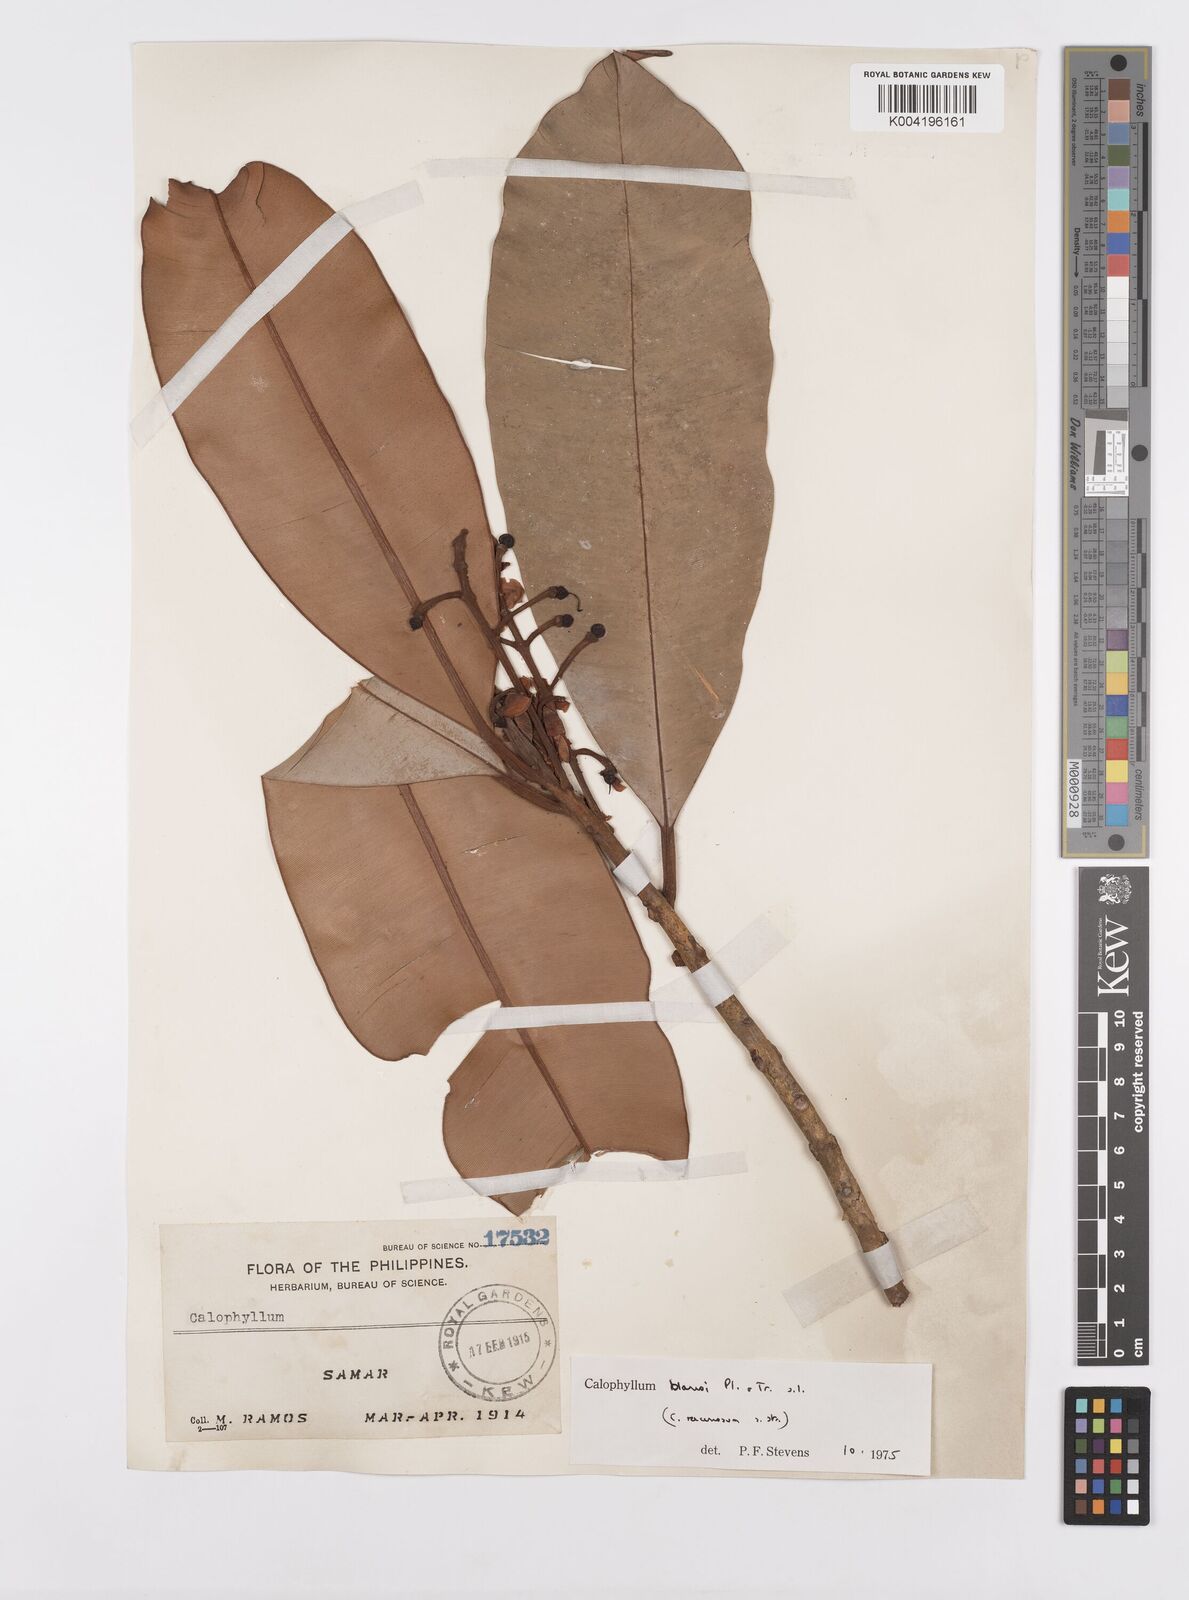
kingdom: Plantae
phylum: Tracheophyta
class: Magnoliopsida
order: Malpighiales
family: Calophyllaceae
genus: Calophyllum
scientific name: Calophyllum blancoi
